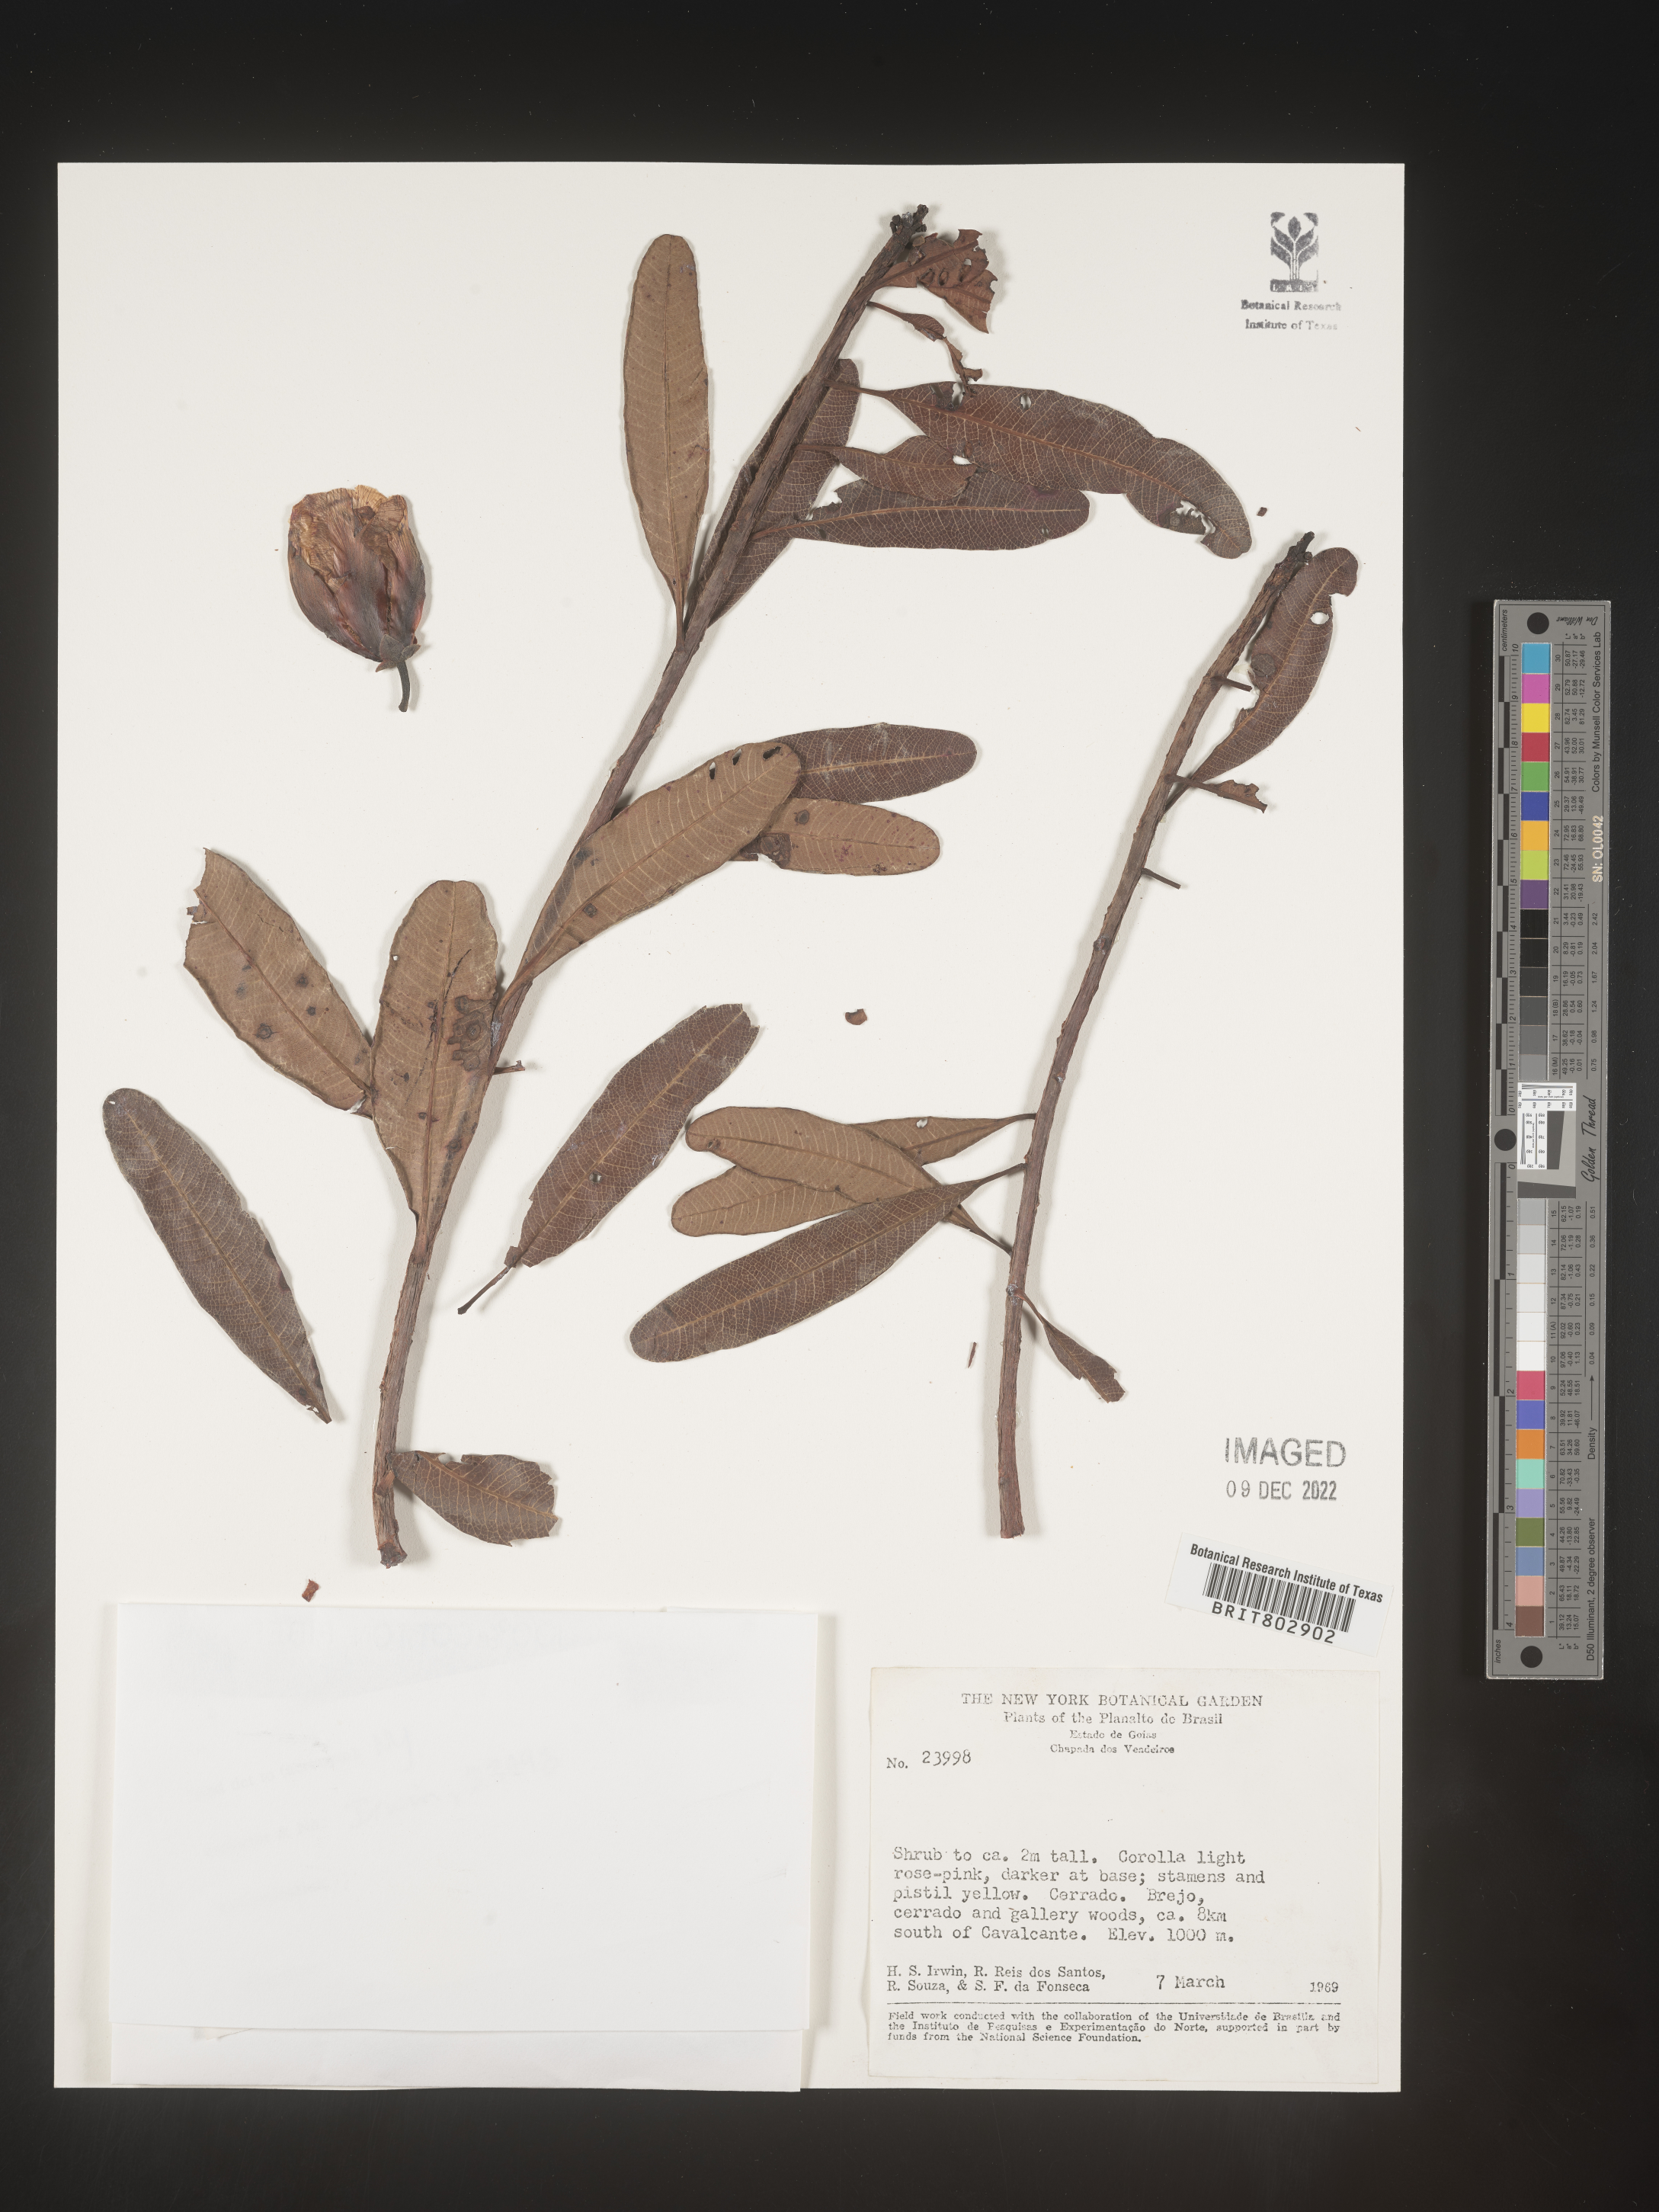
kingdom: Plantae
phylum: Tracheophyta
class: Magnoliopsida
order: Malpighiales
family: Calophyllaceae
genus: Kielmeyera
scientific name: Kielmeyera
